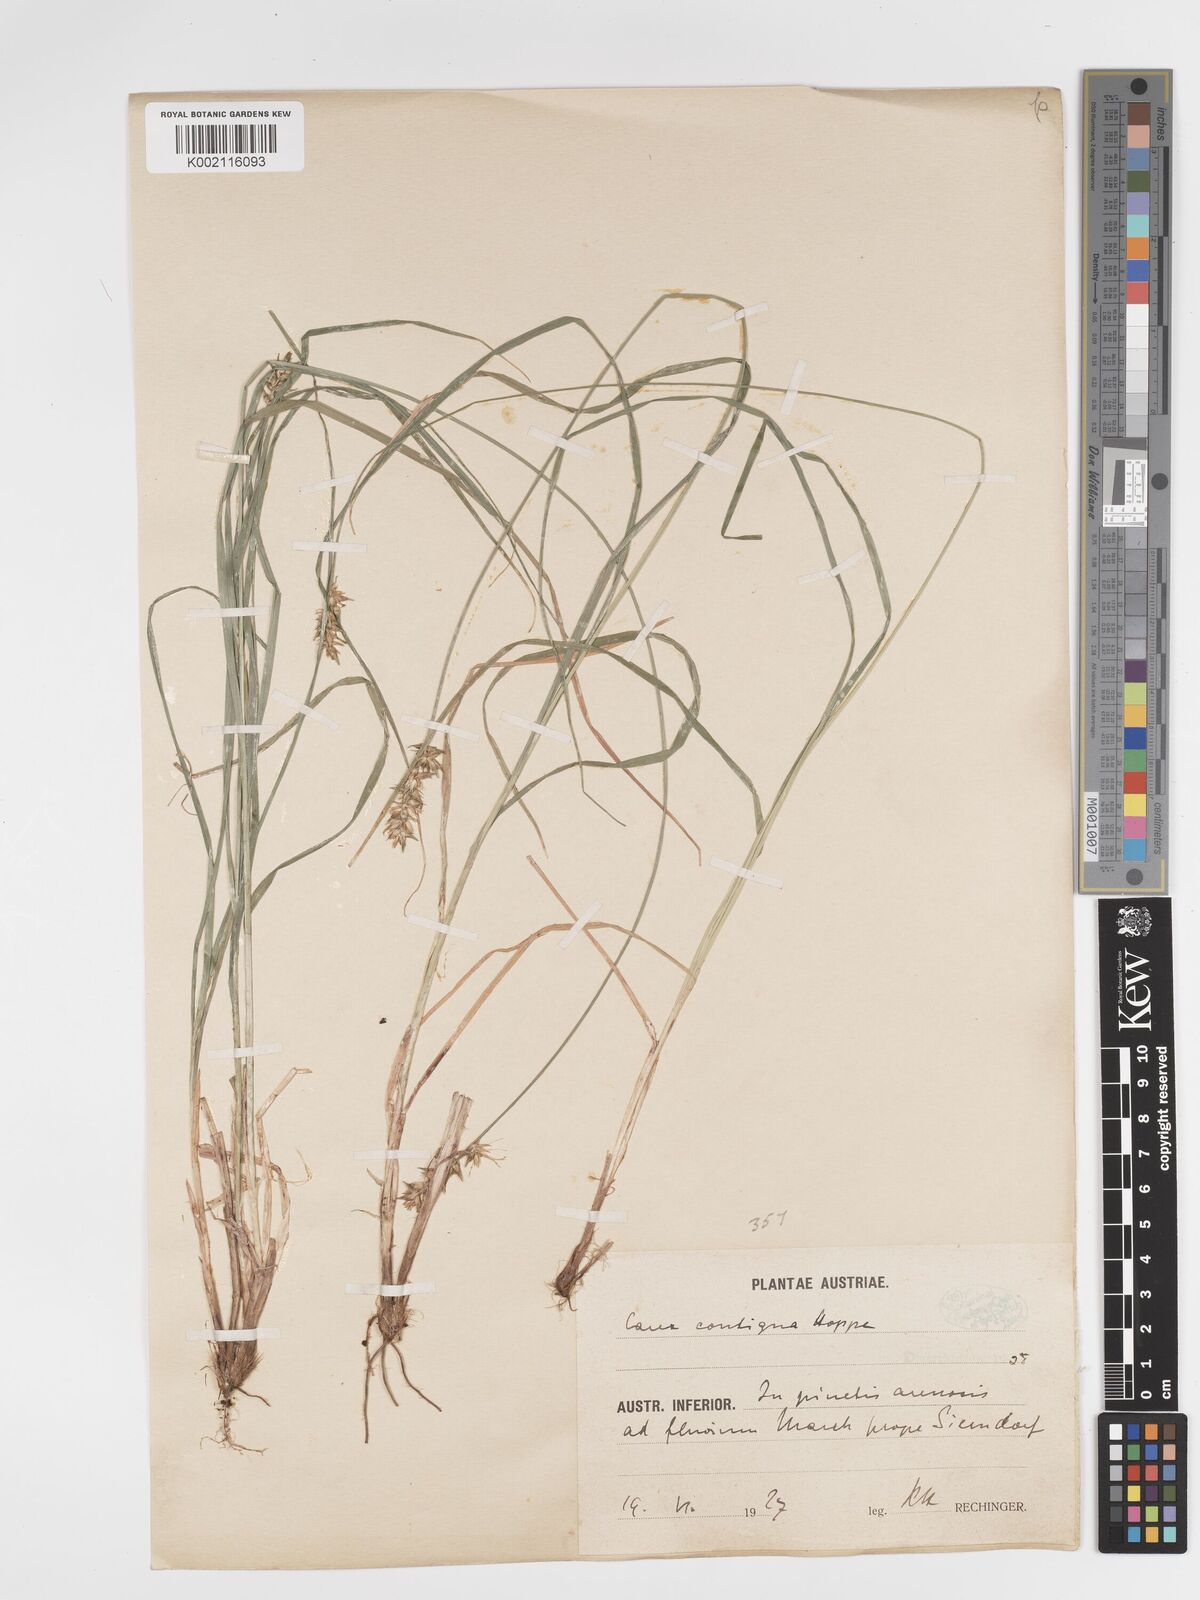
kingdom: Plantae
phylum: Tracheophyta
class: Liliopsida
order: Poales
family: Cyperaceae
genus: Carex
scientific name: Carex spicata
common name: Spiked sedge
